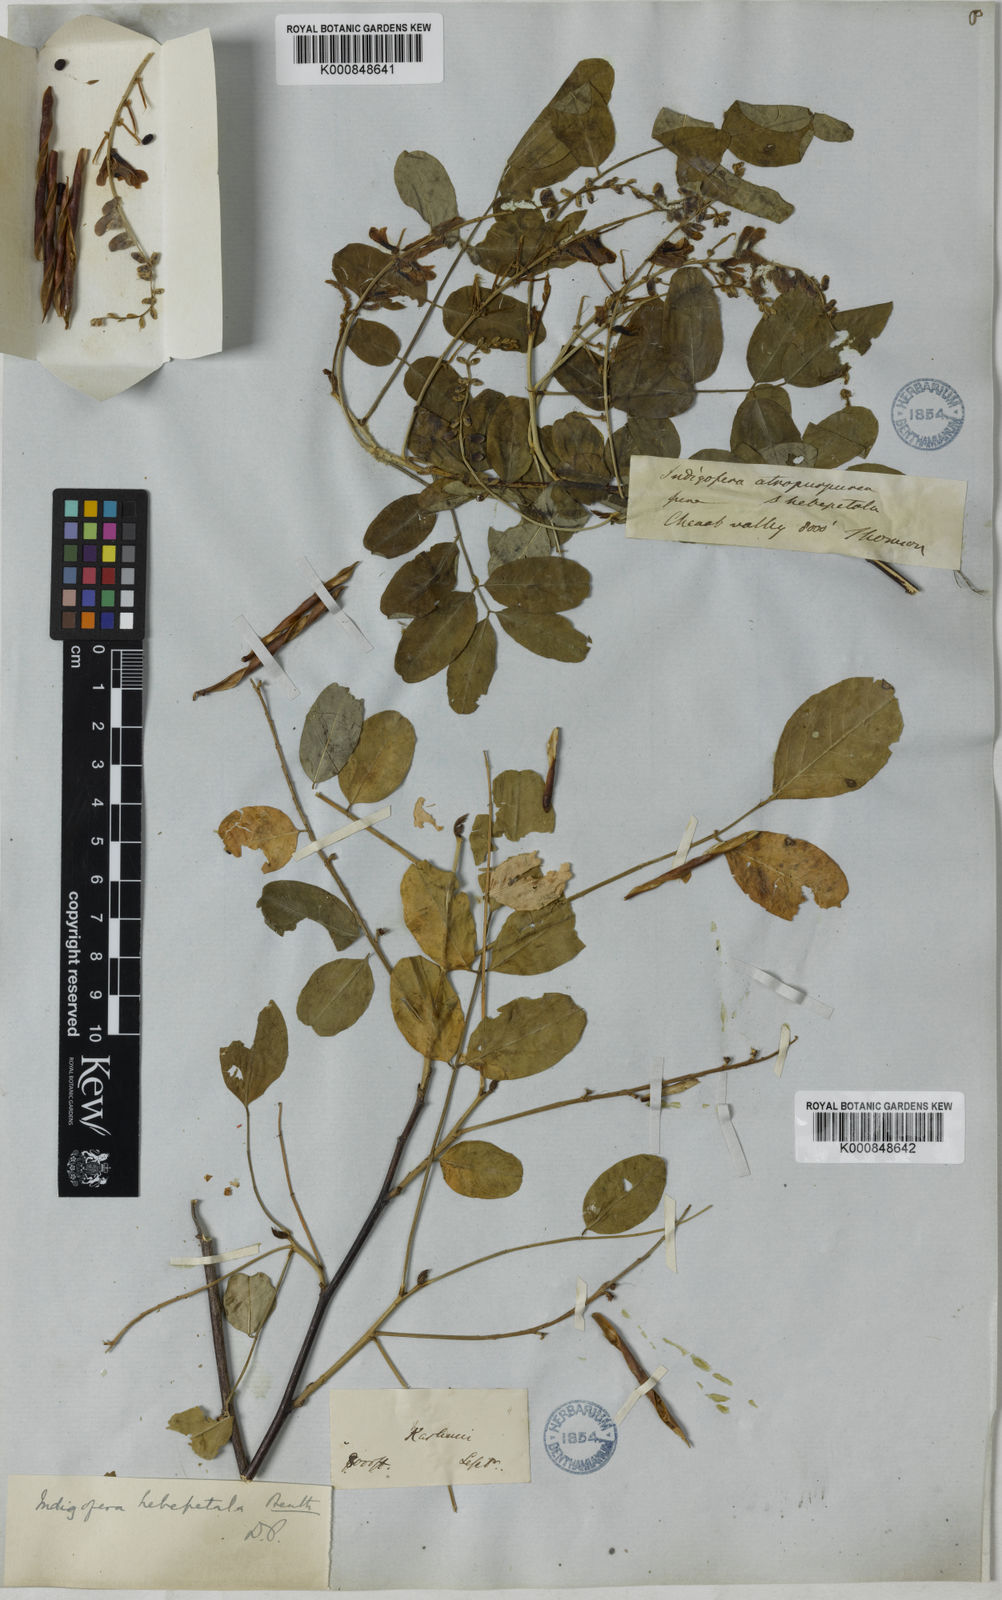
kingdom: Plantae
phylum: Tracheophyta
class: Magnoliopsida
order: Fabales
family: Fabaceae
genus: Indigofera
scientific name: Indigofera hebepetala
